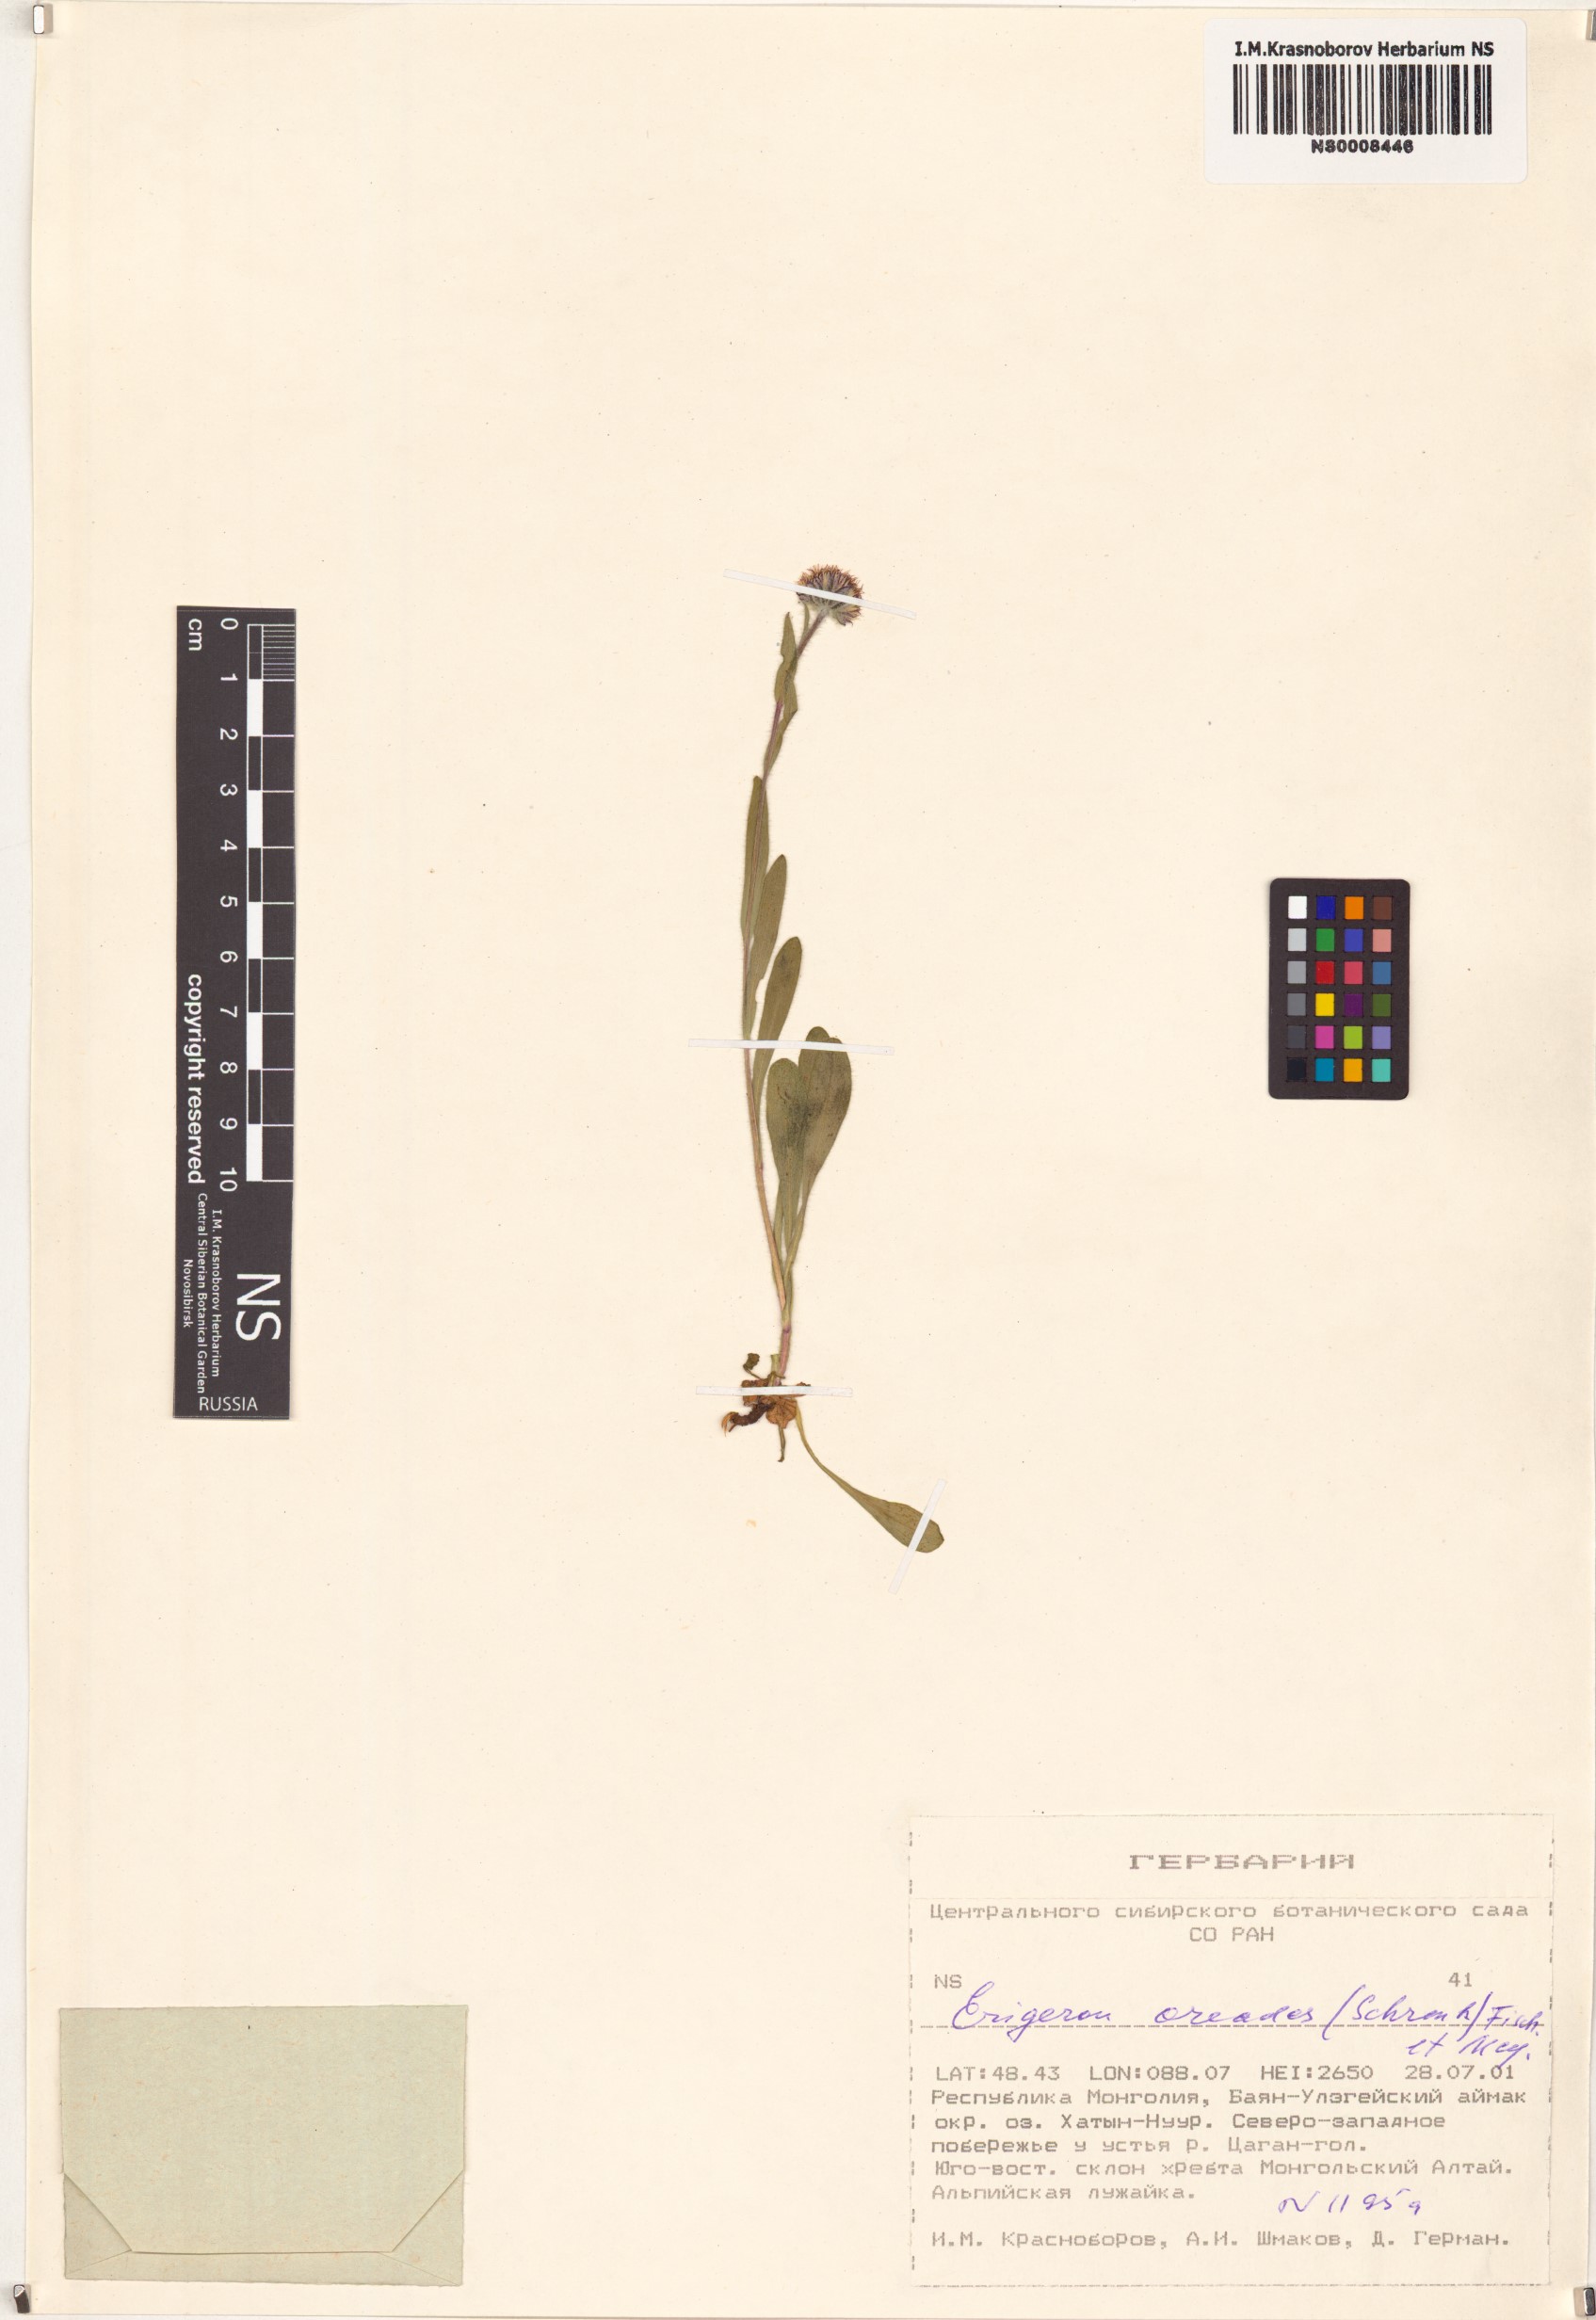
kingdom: Plantae
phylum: Tracheophyta
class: Magnoliopsida
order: Asterales
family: Asteraceae
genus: Erigeron
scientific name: Erigeron oreades
